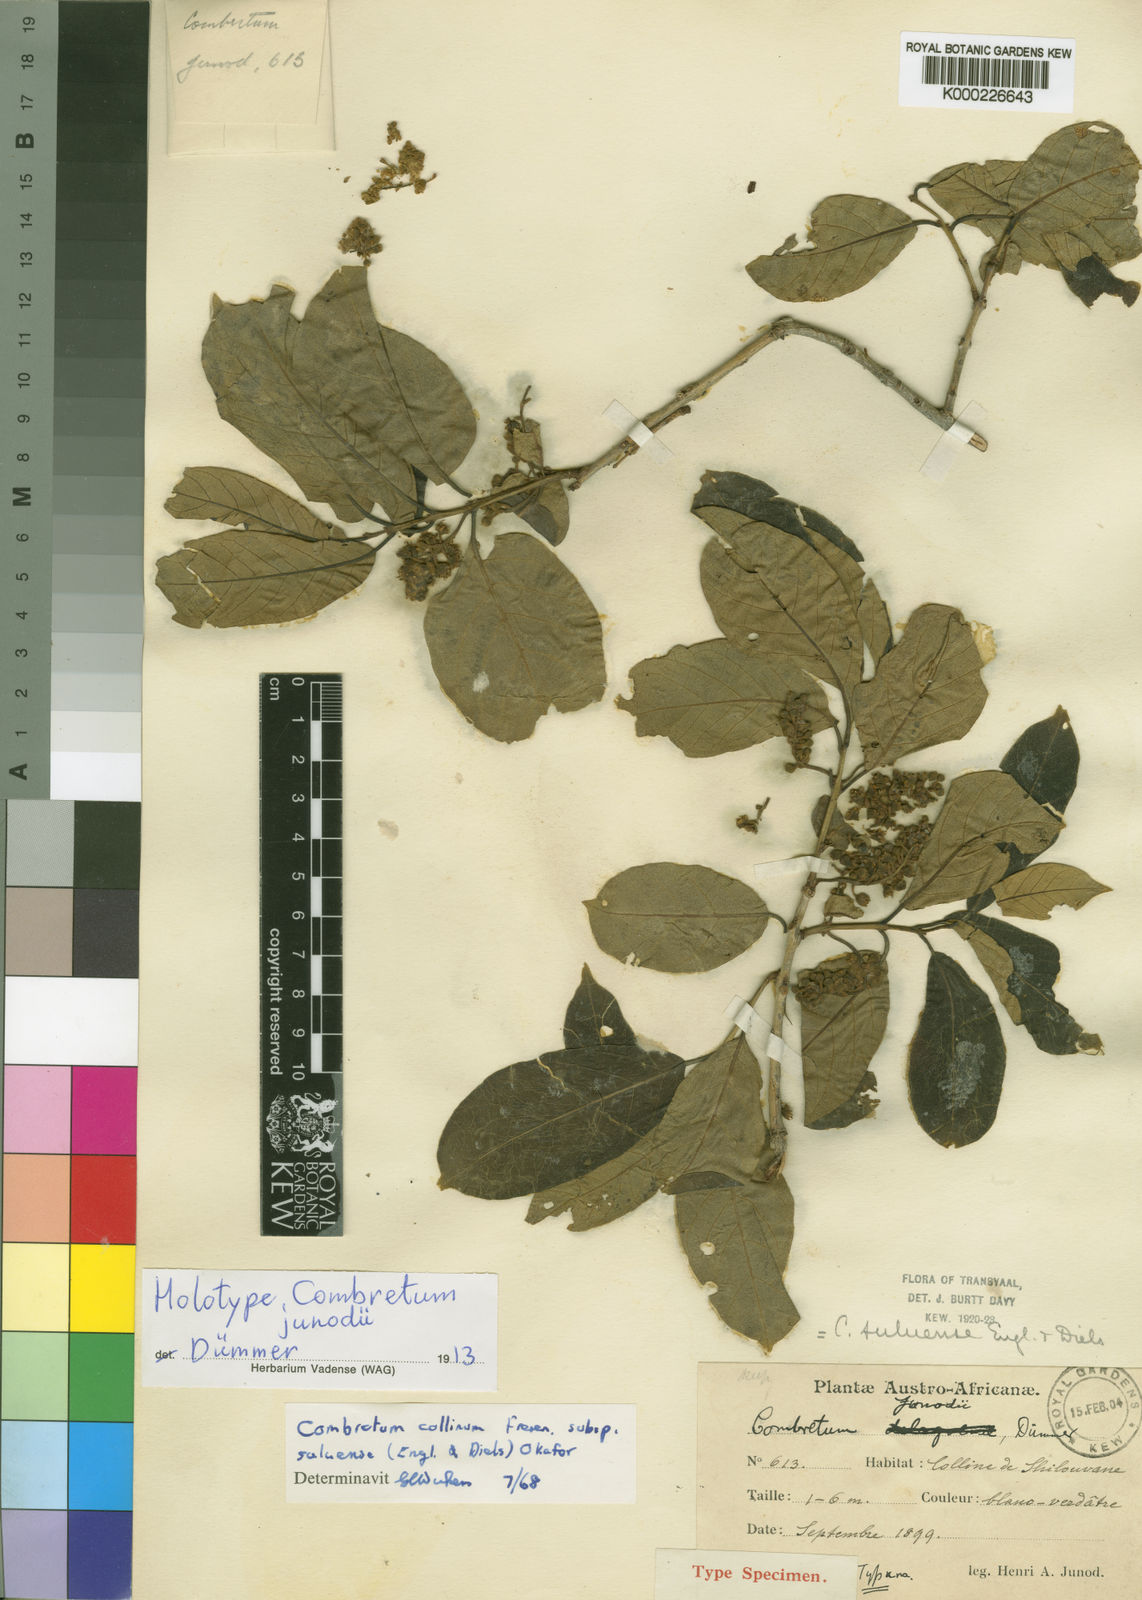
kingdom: Plantae
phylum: Tracheophyta
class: Magnoliopsida
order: Myrtales
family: Combretaceae
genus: Combretum
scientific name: Combretum collinum
